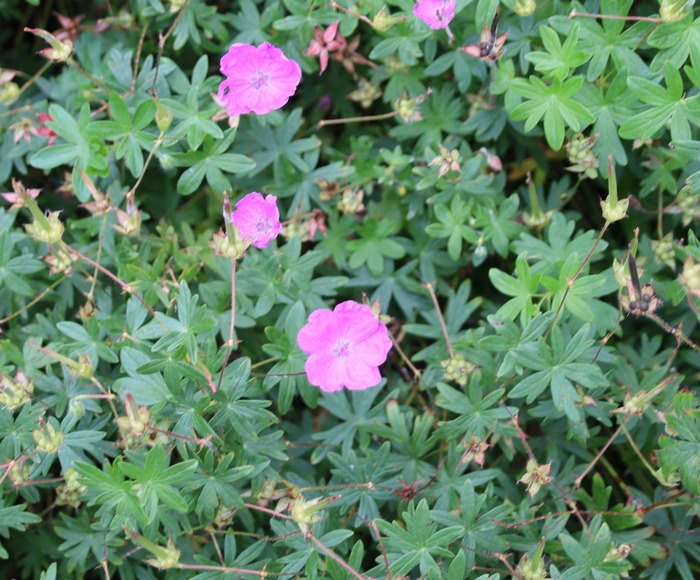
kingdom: Plantae
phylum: Tracheophyta
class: Magnoliopsida
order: Geraniales
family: Geraniaceae
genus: Geranium
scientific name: Geranium sanguineum
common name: Blodrød storkenæb
